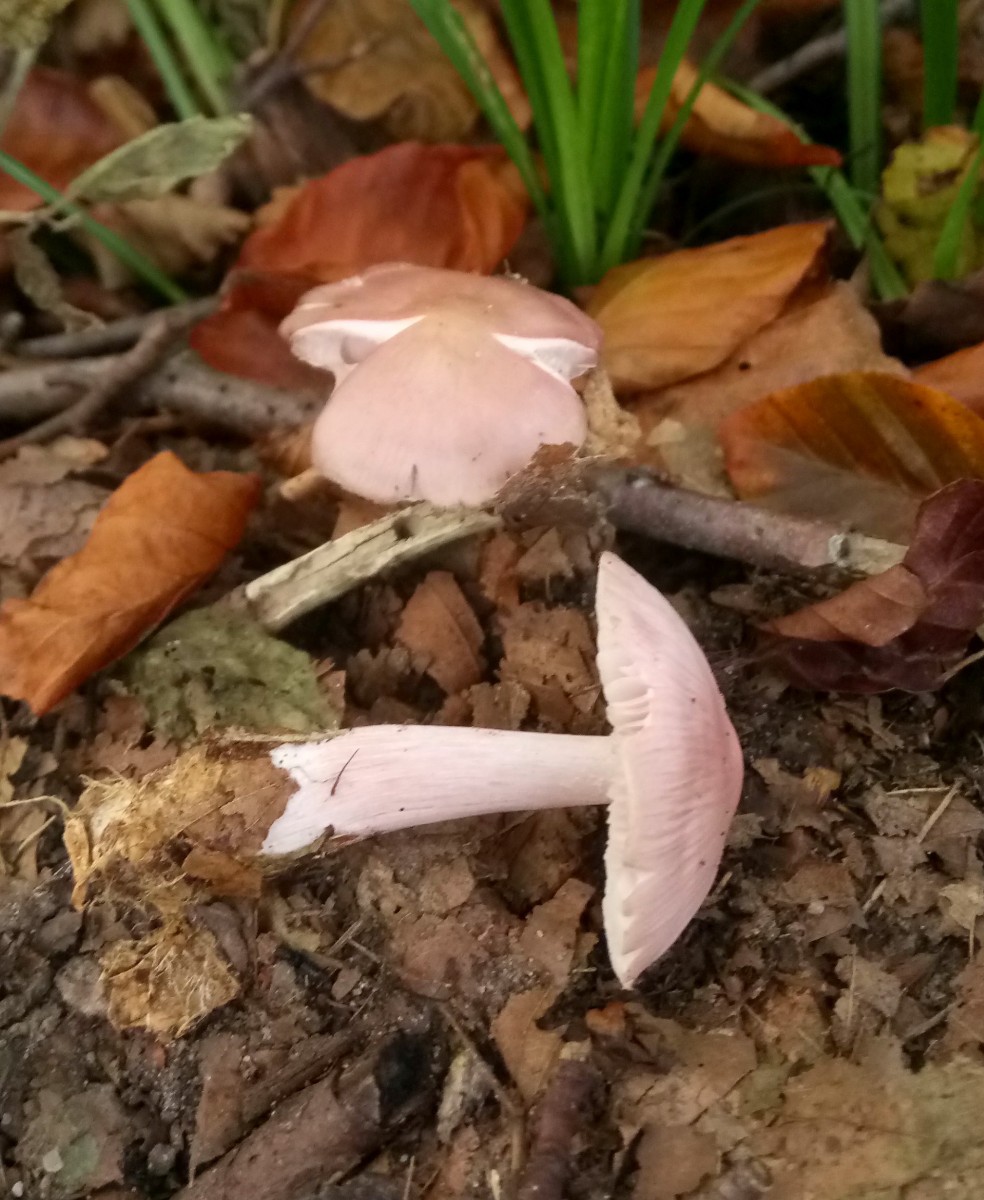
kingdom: Fungi
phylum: Basidiomycota
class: Agaricomycetes
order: Agaricales
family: Mycenaceae
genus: Mycena
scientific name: Mycena rosea
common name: rosa huesvamp
